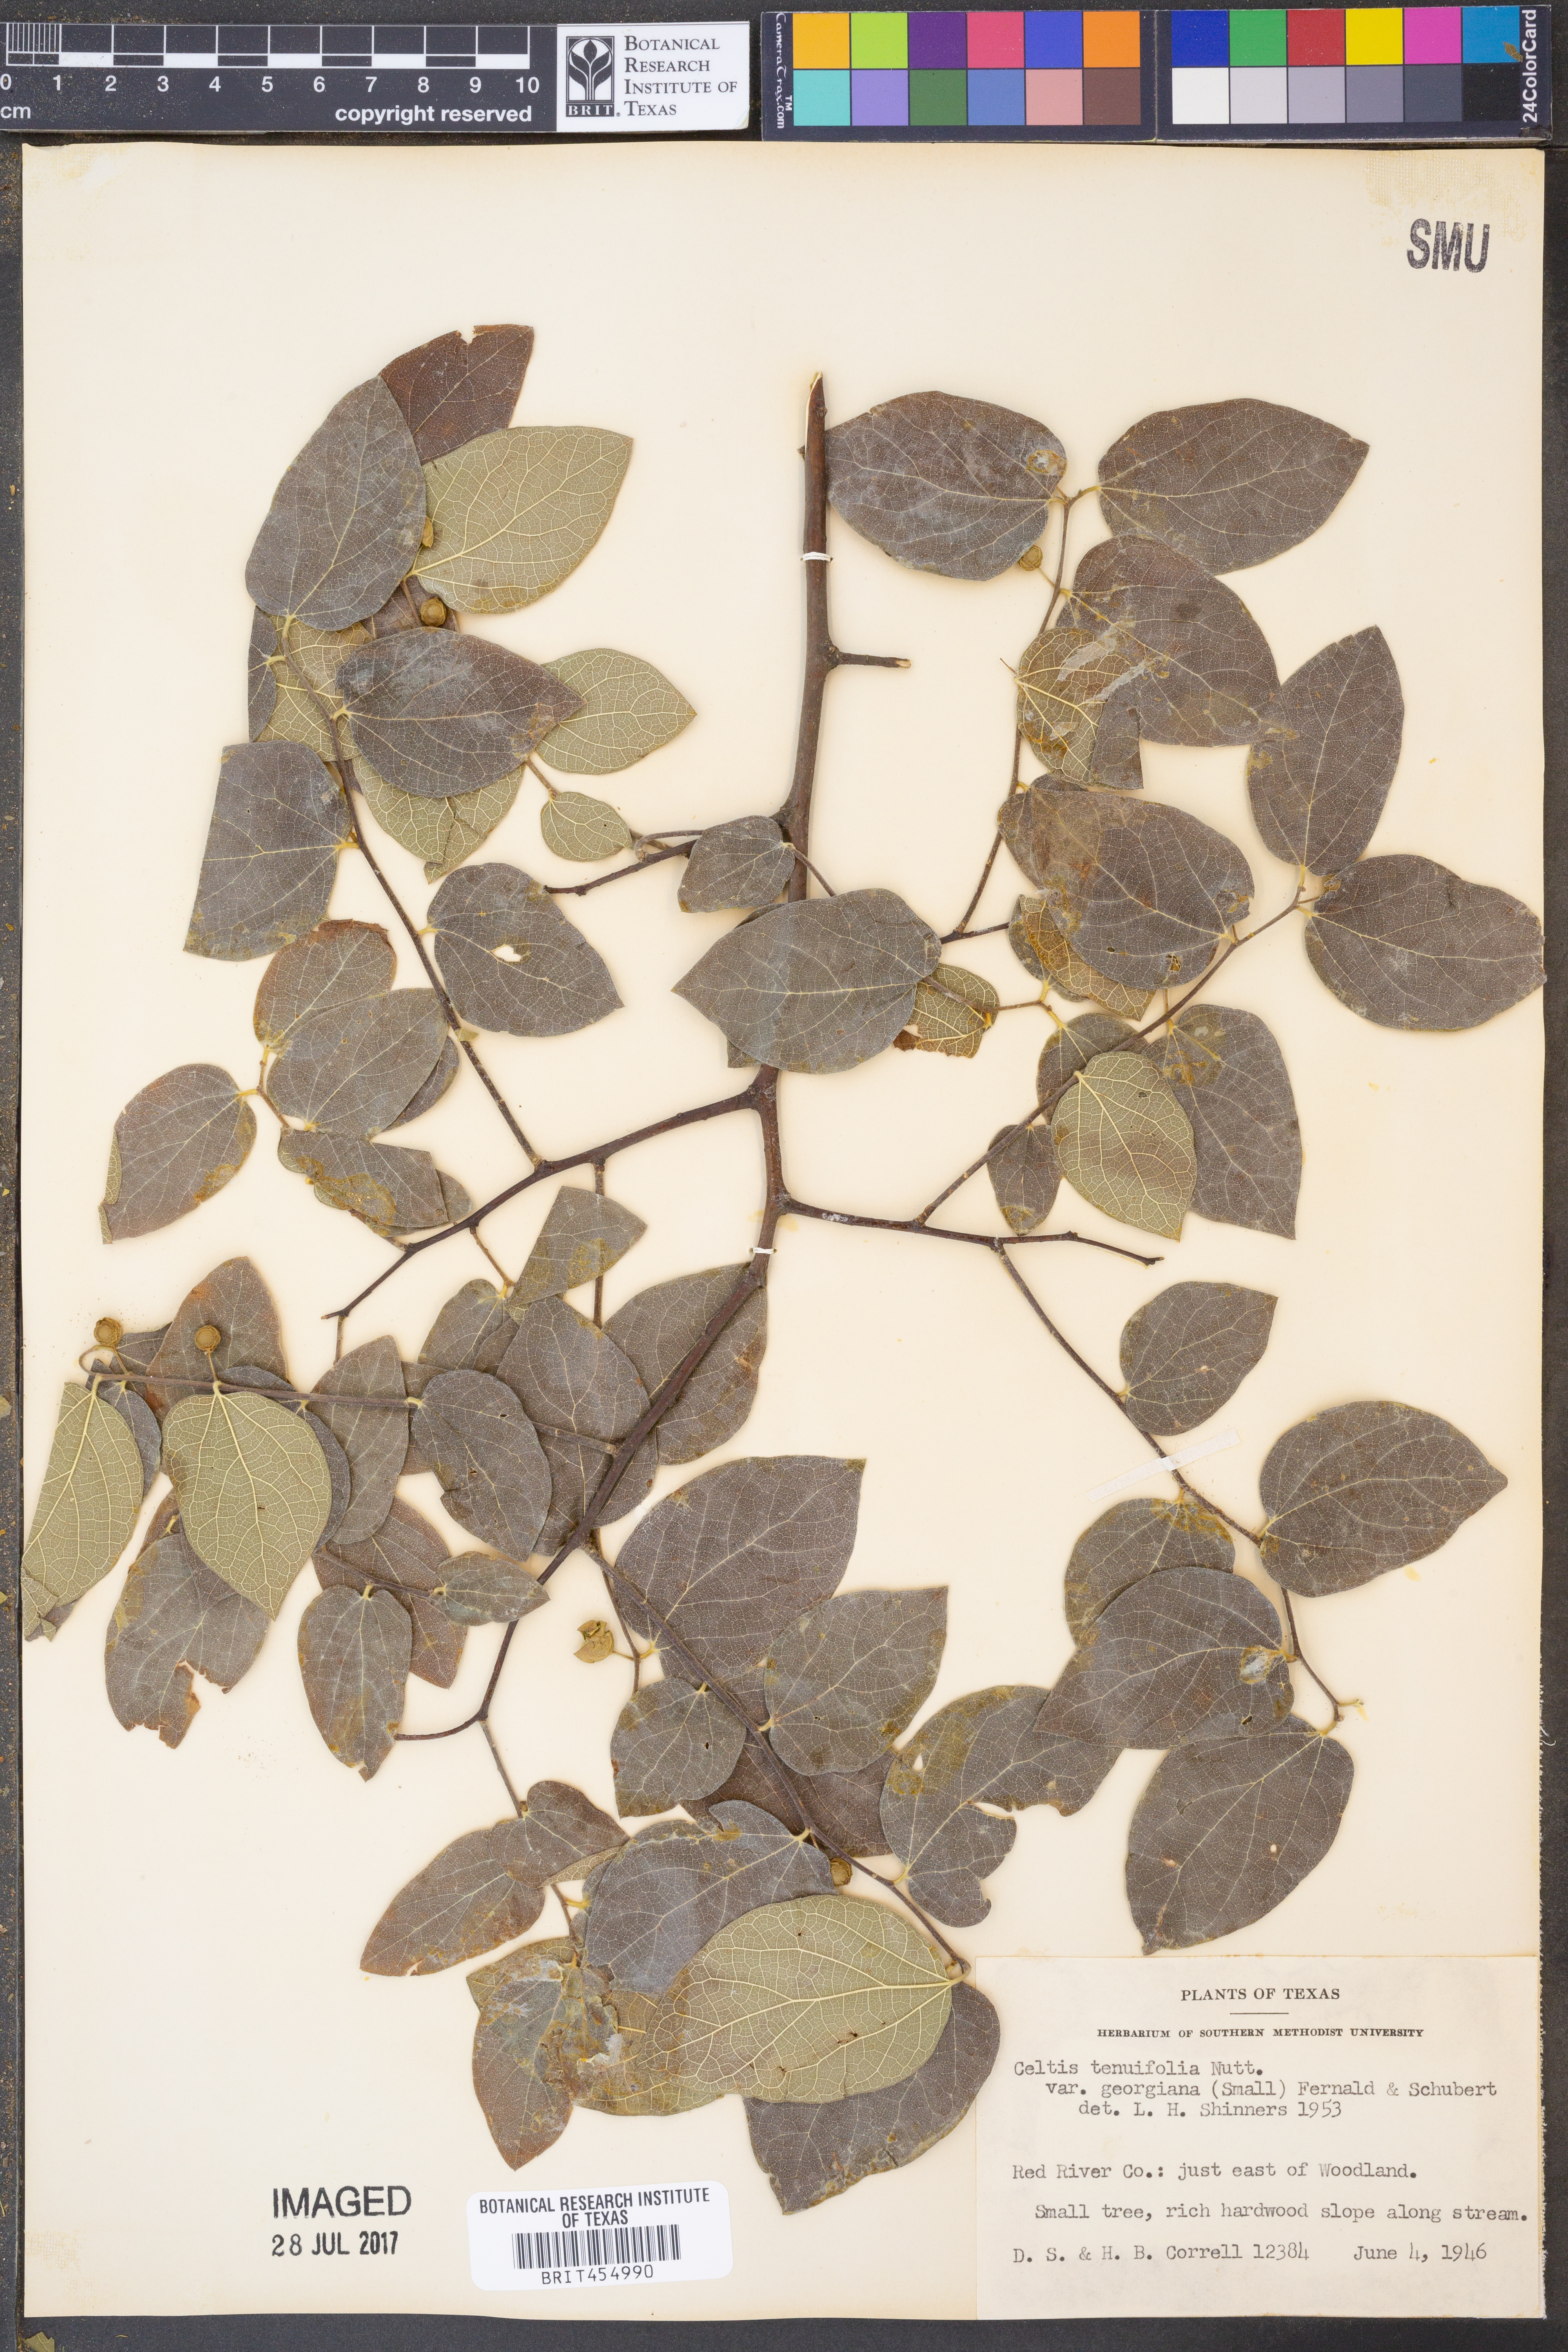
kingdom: Plantae
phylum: Tracheophyta
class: Magnoliopsida
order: Rosales
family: Cannabaceae
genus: Celtis
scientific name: Celtis tenuifolia
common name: Georgia hackberry
